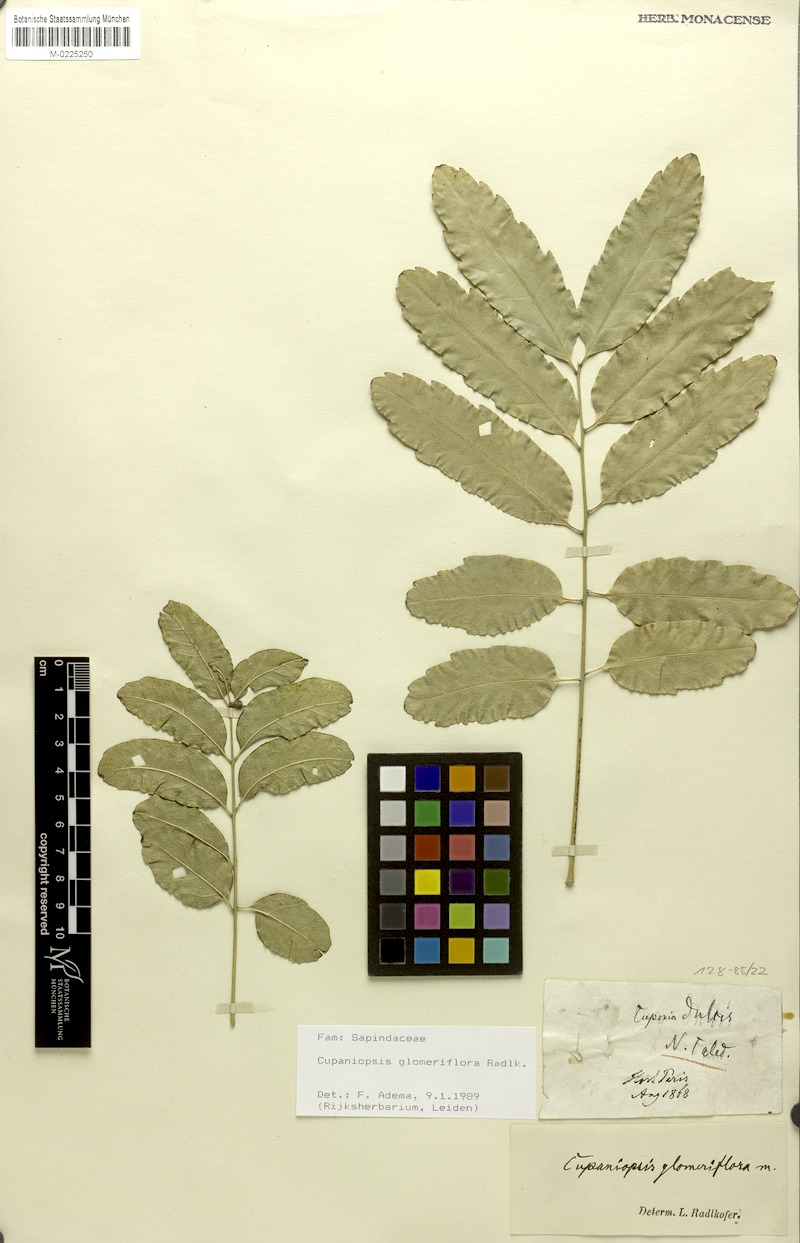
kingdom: Plantae
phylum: Tracheophyta
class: Magnoliopsida
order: Sapindales
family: Sapindaceae
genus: Lepidocupania
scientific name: Lepidocupania glomeriflora
